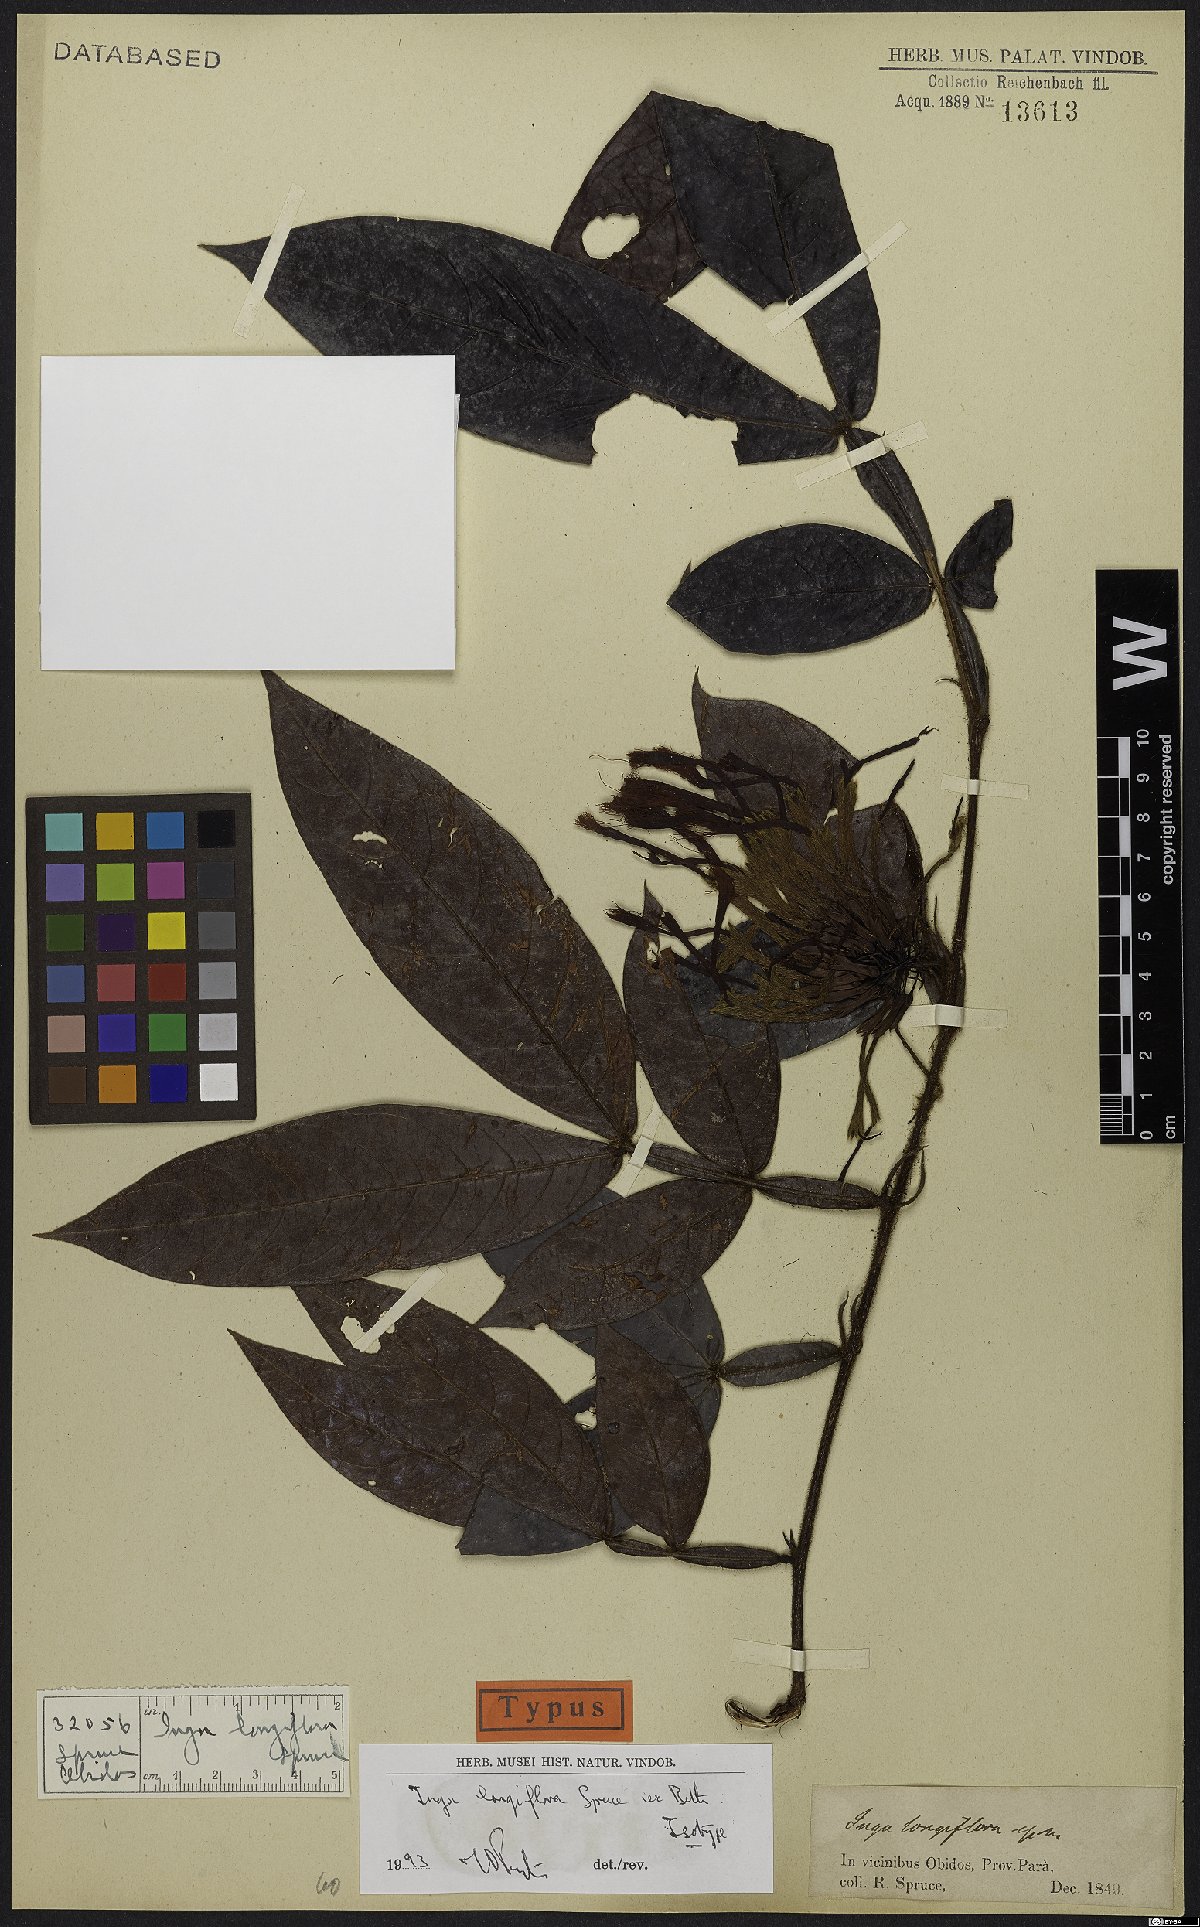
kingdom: Plantae
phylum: Tracheophyta
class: Magnoliopsida
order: Fabales
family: Fabaceae
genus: Inga
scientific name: Inga longiflora
